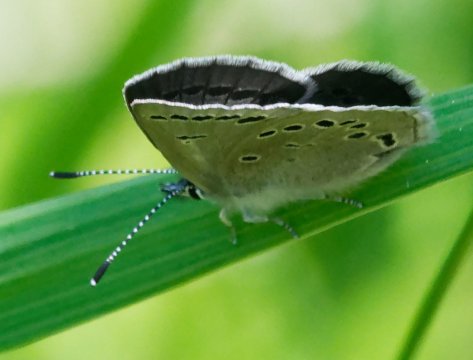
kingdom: Animalia
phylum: Arthropoda
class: Insecta
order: Lepidoptera
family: Lycaenidae
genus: Glaucopsyche
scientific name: Glaucopsyche lygdamus
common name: Silvery Blue
